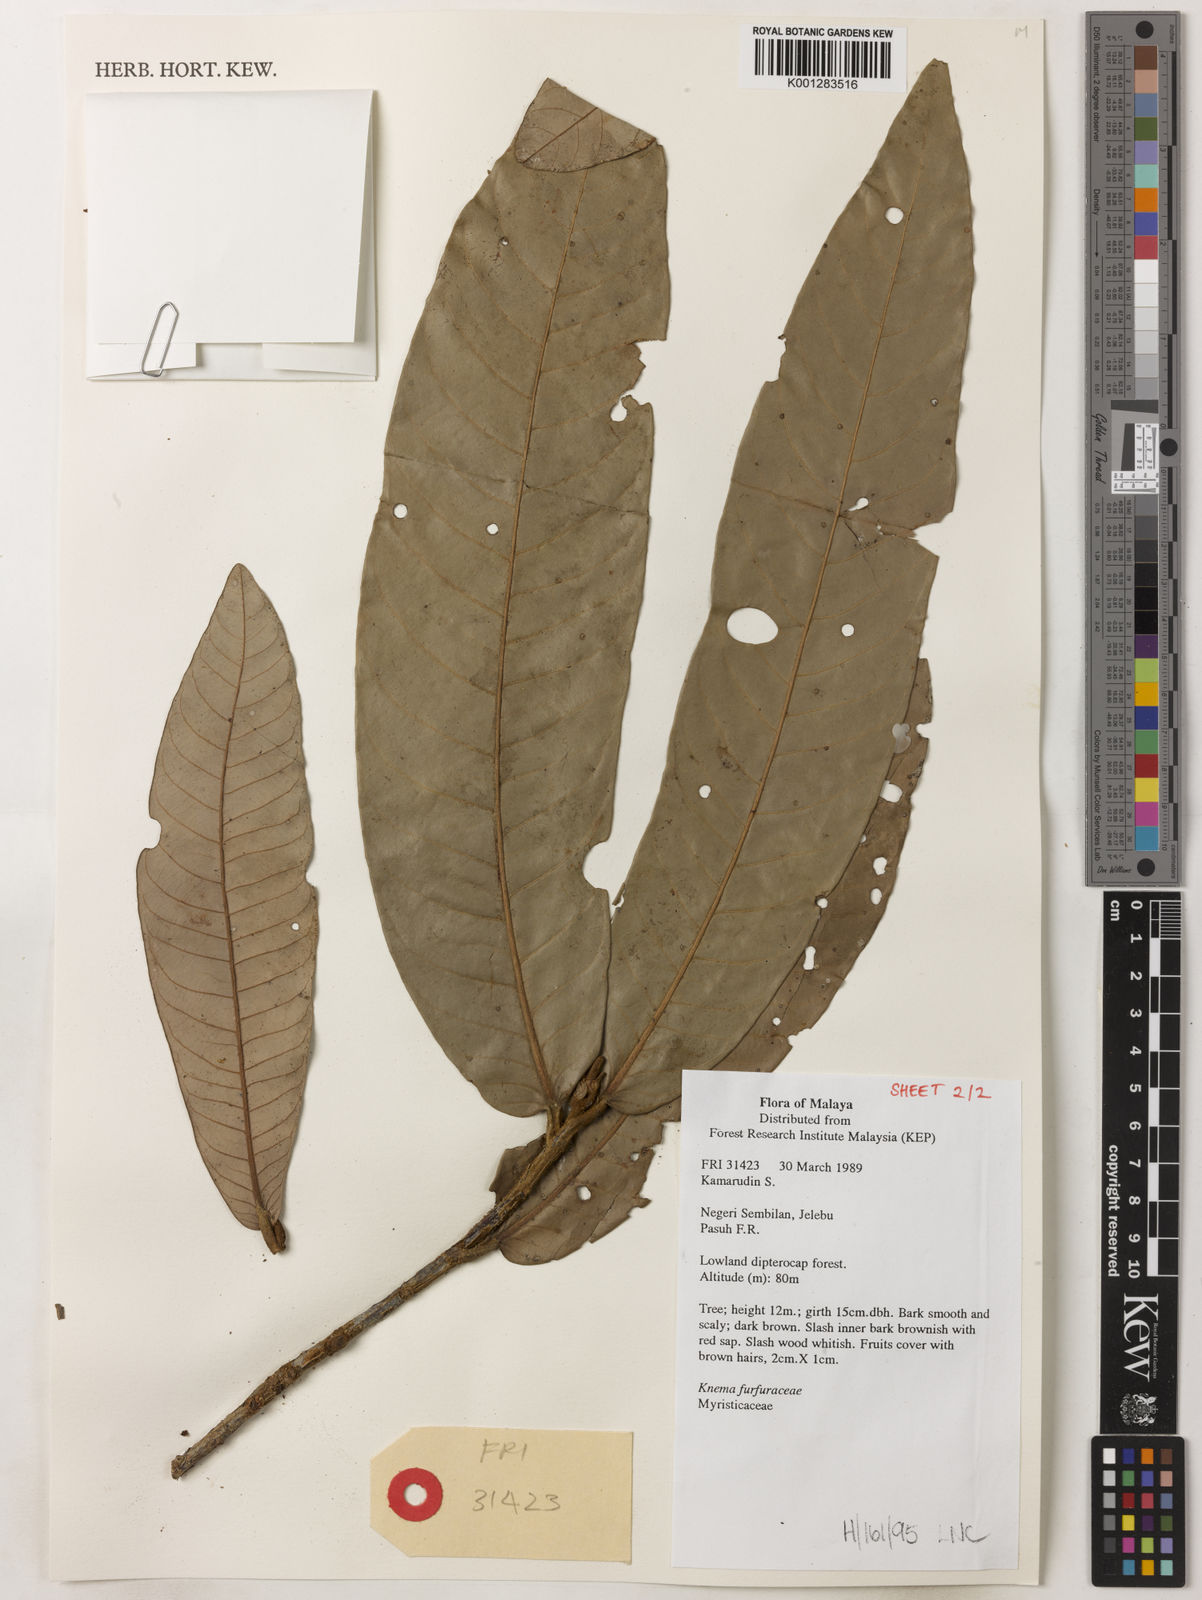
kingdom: Plantae
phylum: Tracheophyta
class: Magnoliopsida
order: Magnoliales
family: Myristicaceae
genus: Knema
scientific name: Knema furfuracea
